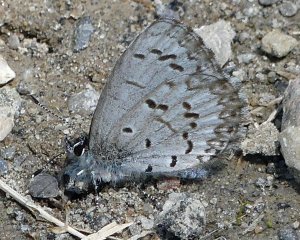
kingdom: Animalia
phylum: Arthropoda
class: Insecta
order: Lepidoptera
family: Lycaenidae
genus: Celastrina
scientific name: Celastrina lucia
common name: Northern Spring Azure
